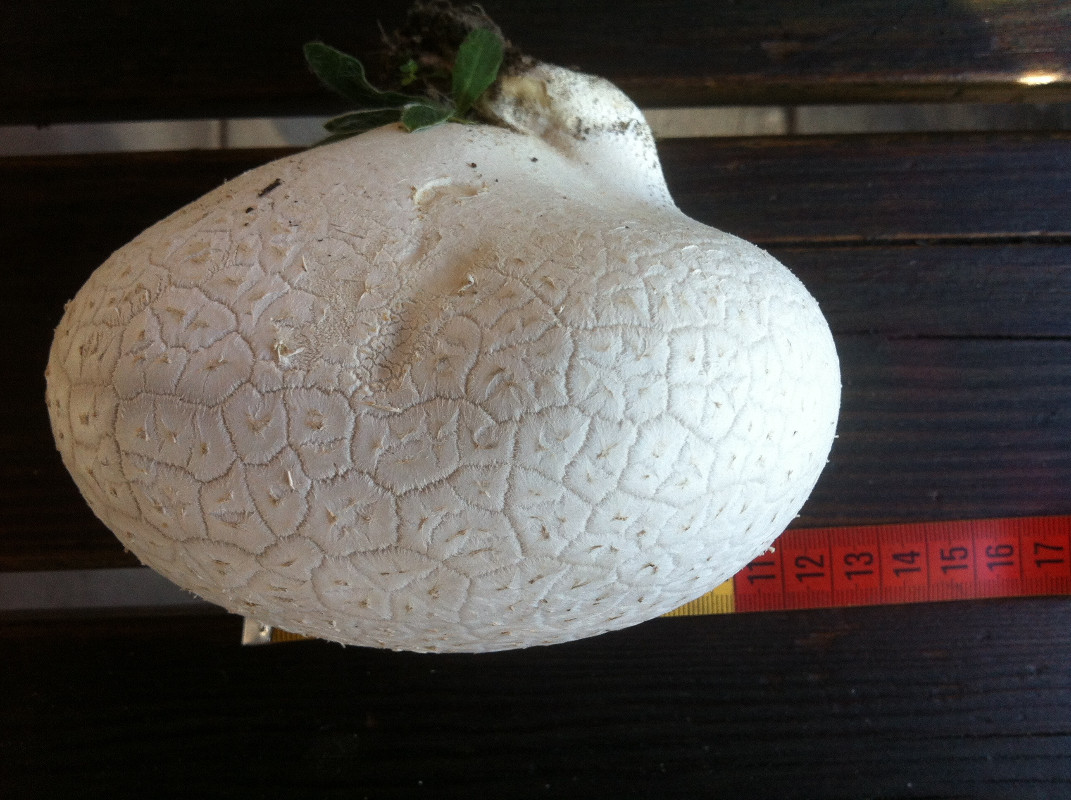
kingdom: Fungi
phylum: Basidiomycota
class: Agaricomycetes
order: Agaricales
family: Lycoperdaceae
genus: Bovistella
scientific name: Bovistella utriformis
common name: skællet støvbold
